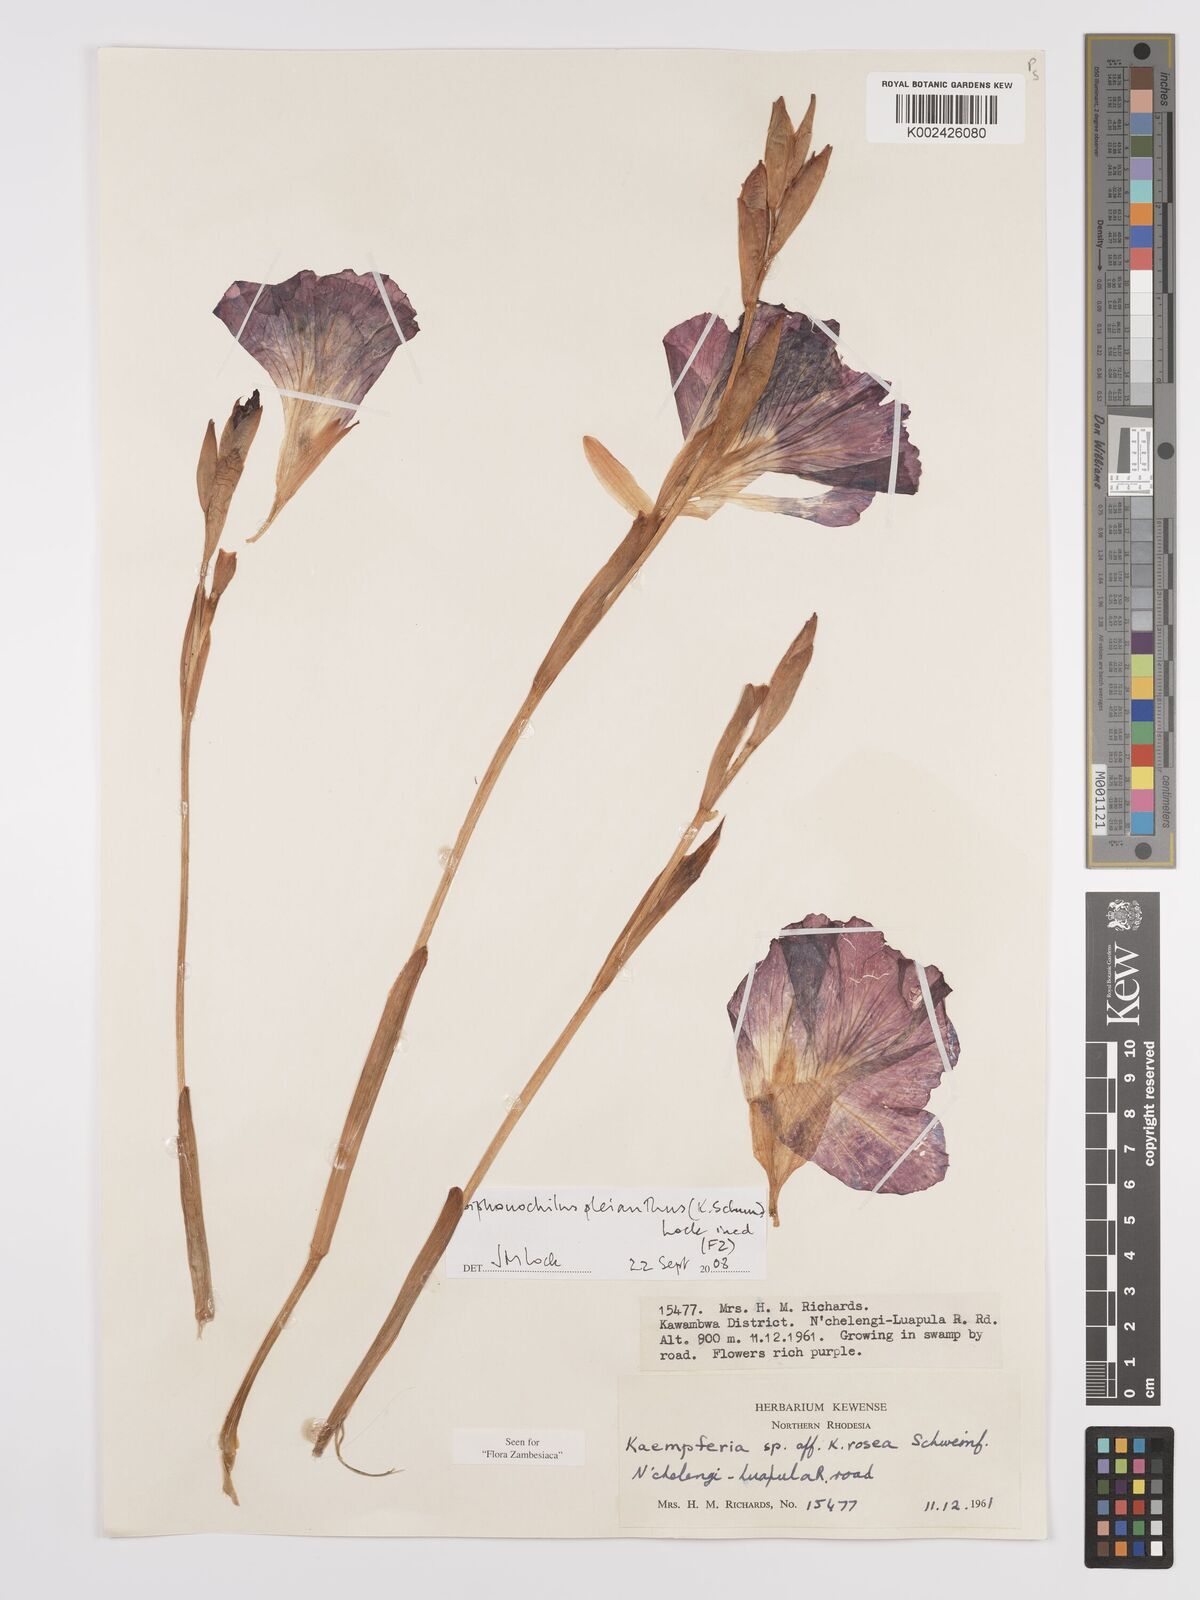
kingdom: Plantae
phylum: Tracheophyta
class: Liliopsida
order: Zingiberales
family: Zingiberaceae
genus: Siphonochilus
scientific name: Siphonochilus pleianthus
